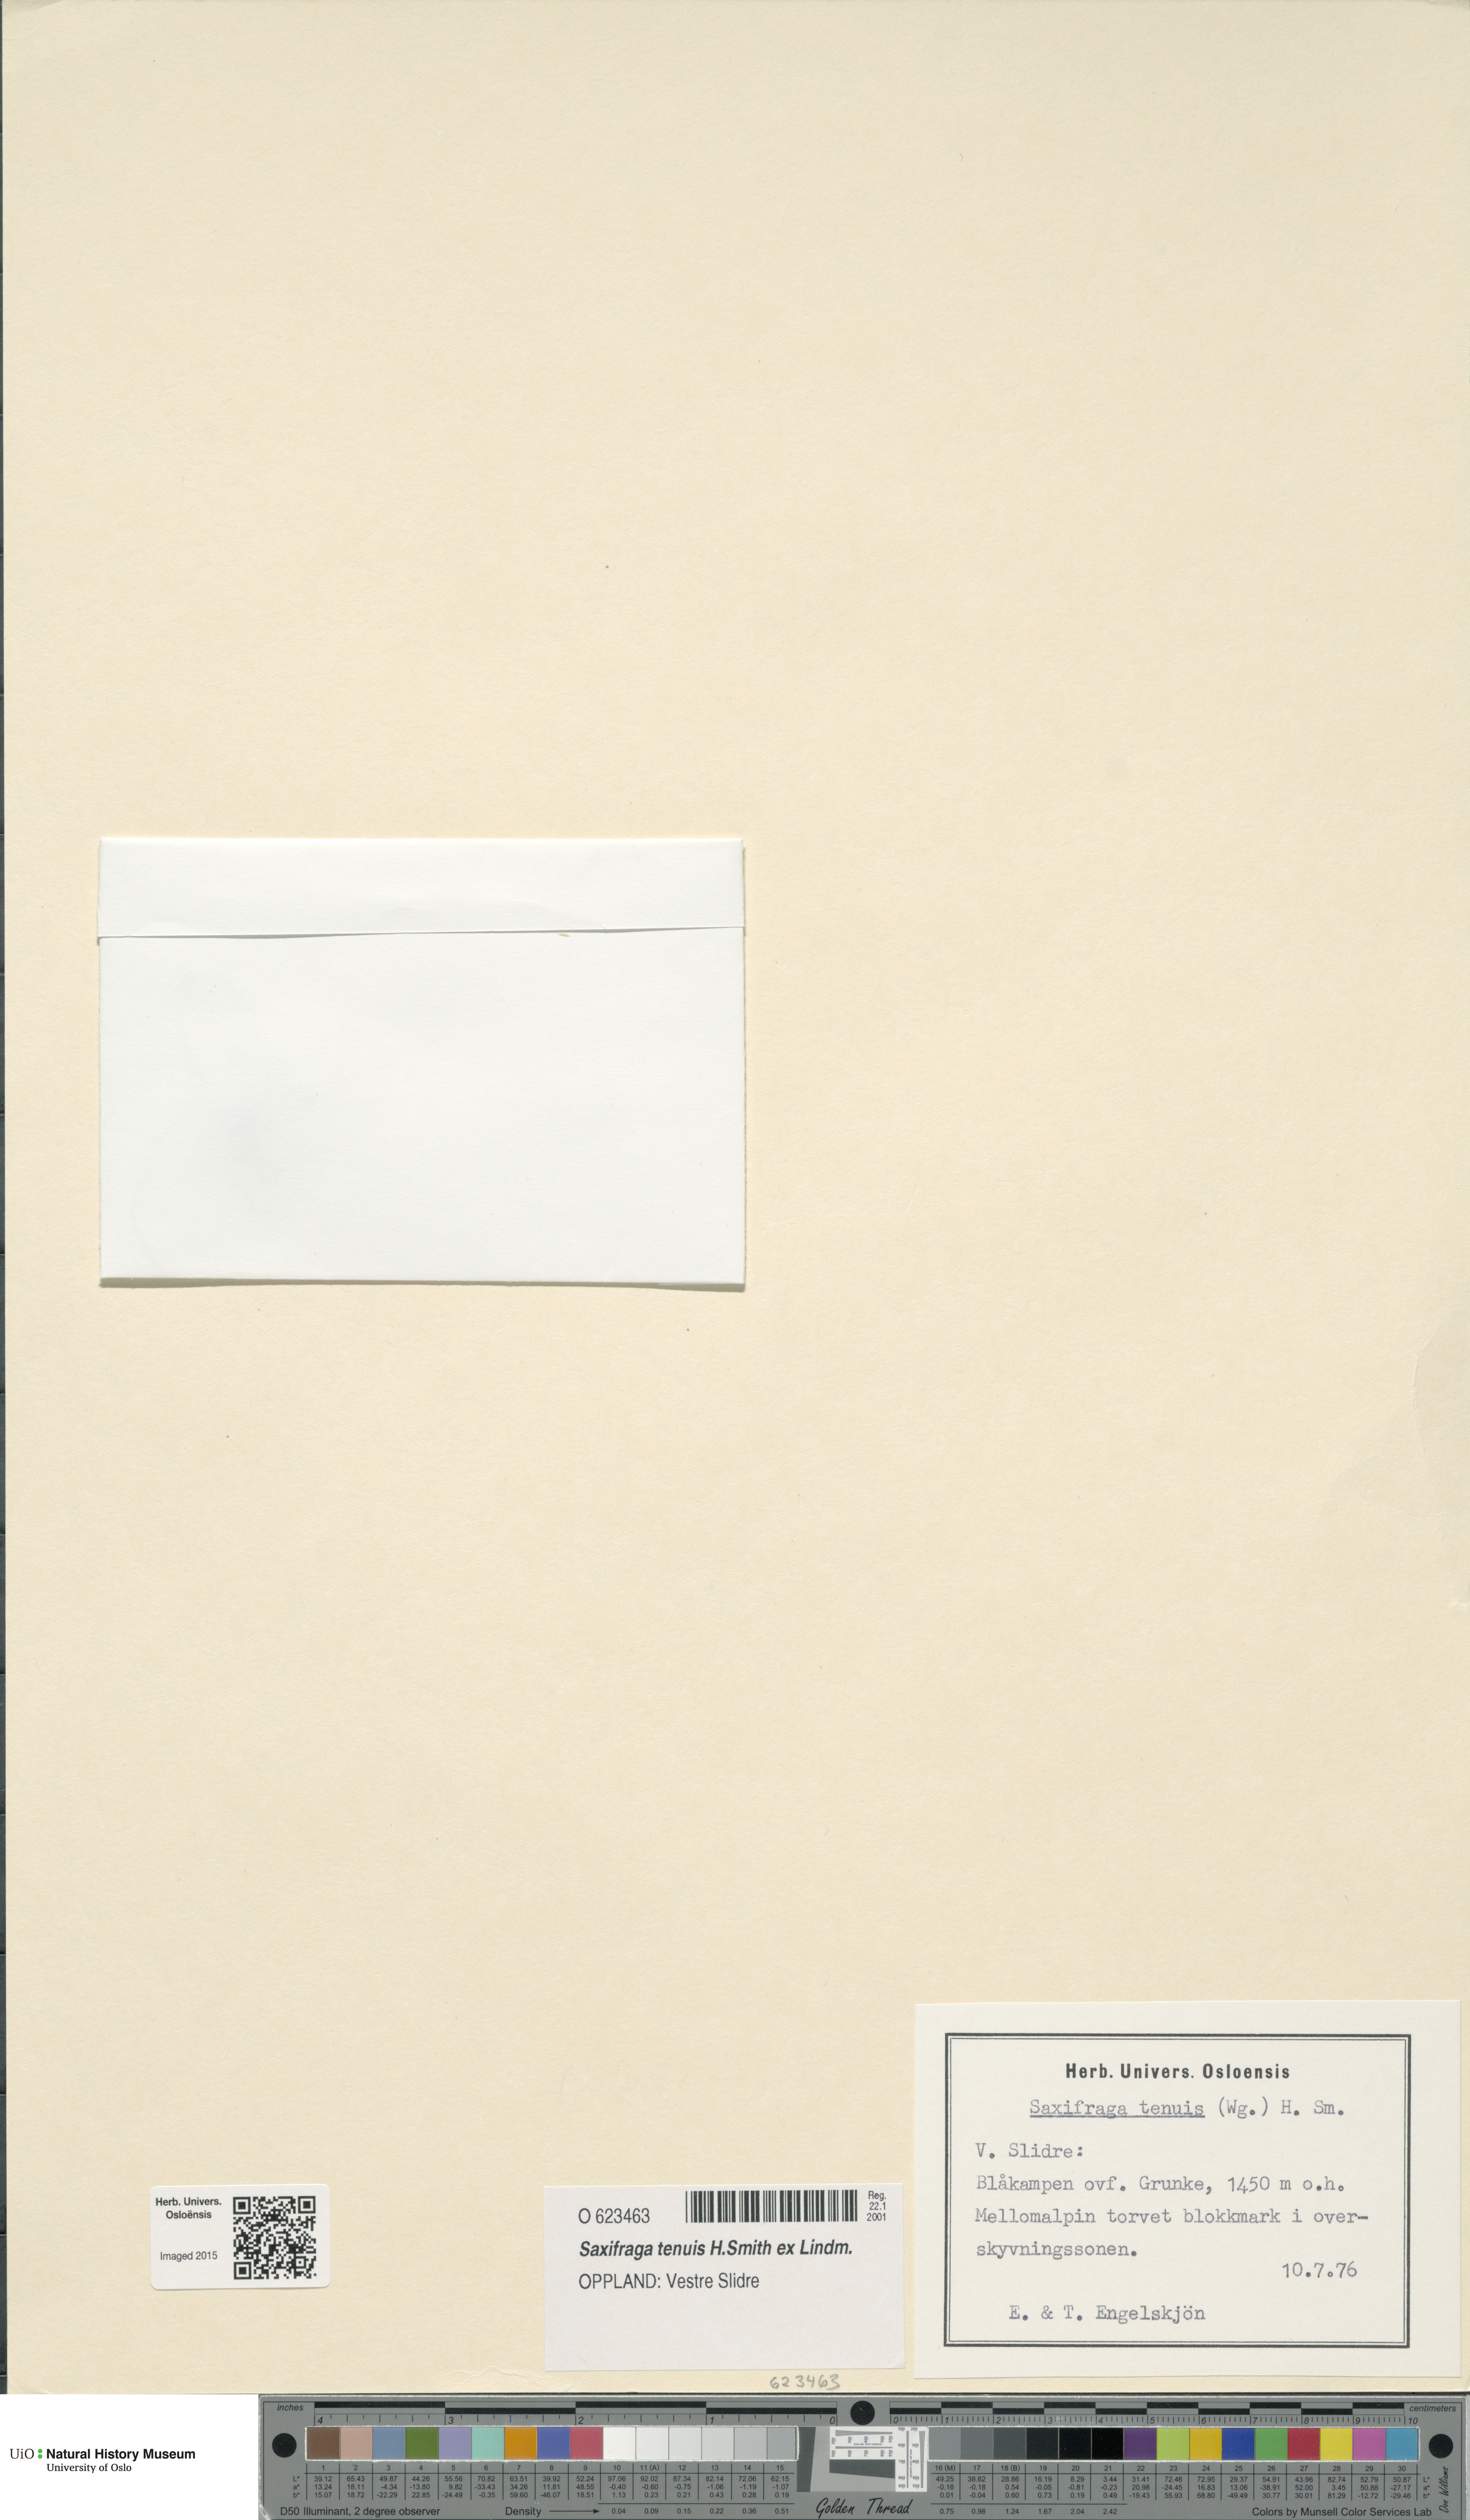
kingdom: Plantae
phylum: Tracheophyta
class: Magnoliopsida
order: Saxifragales
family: Saxifragaceae
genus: Micranthes
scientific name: Micranthes tenuis
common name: Ottertail pass saxifrage
